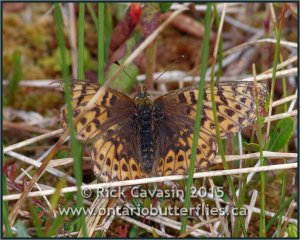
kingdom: Animalia
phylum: Arthropoda
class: Insecta
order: Lepidoptera
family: Nymphalidae
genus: Boloria
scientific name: Boloria freija
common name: Freija Fritillary
